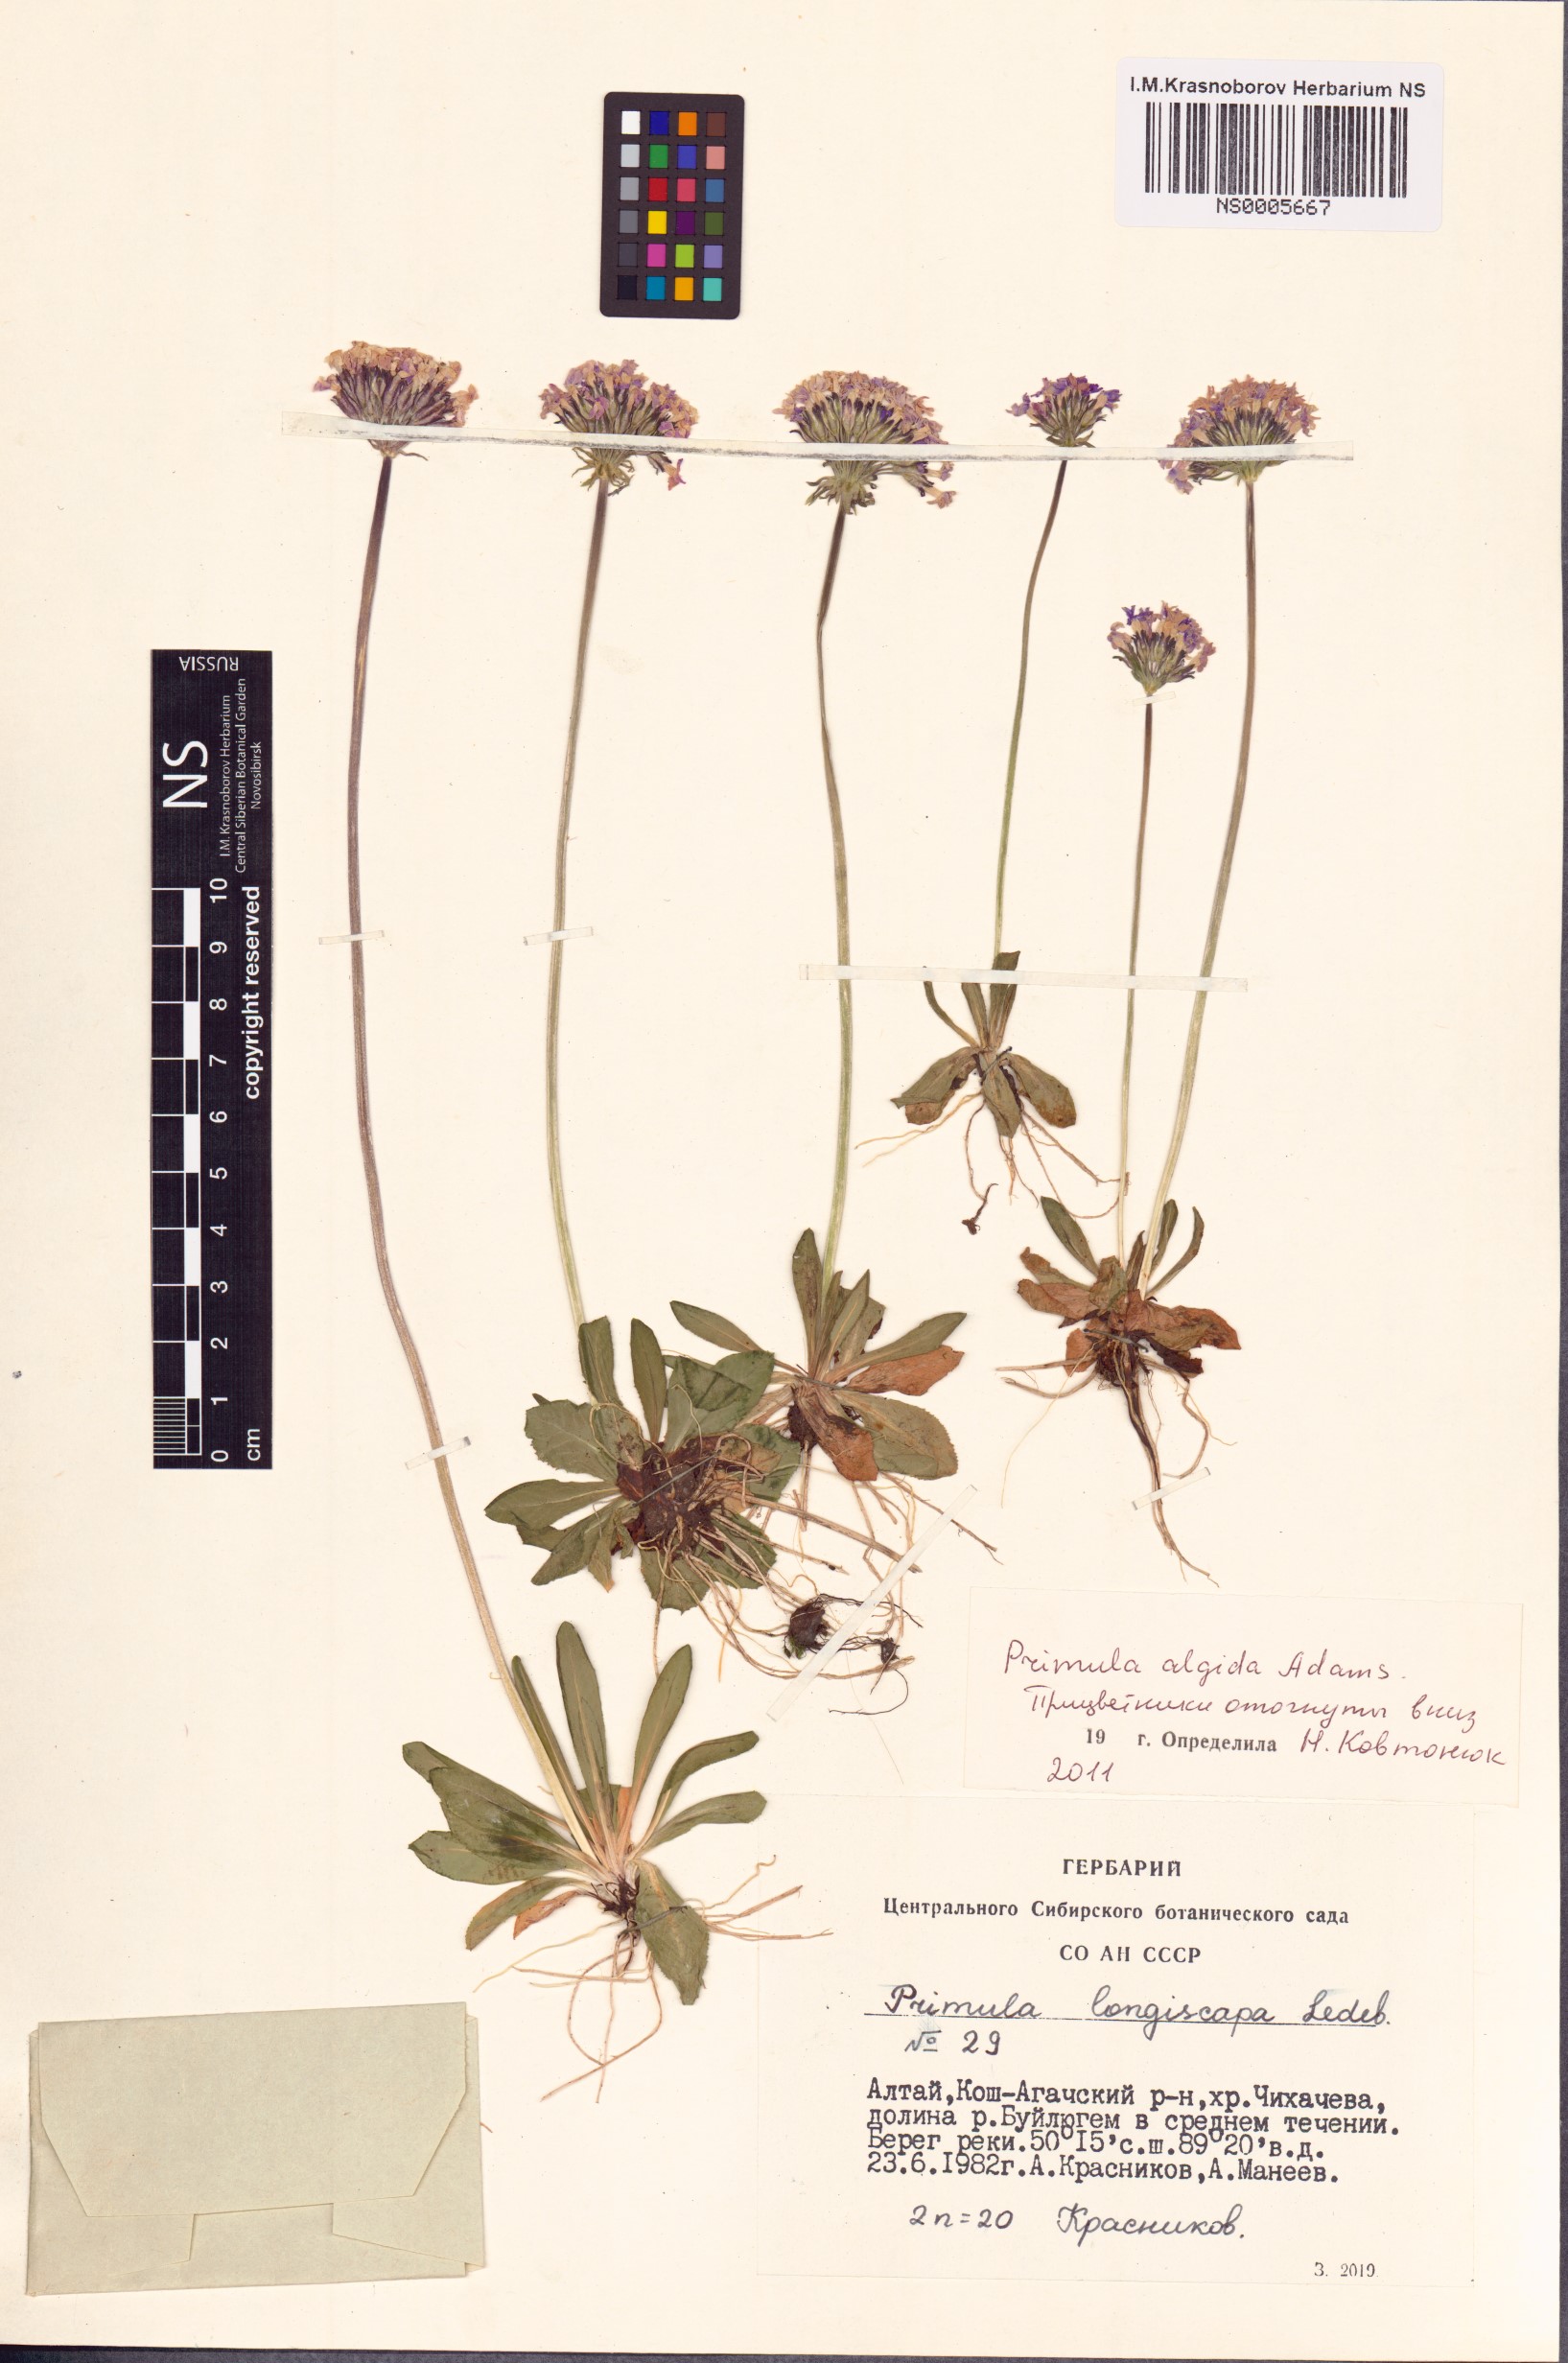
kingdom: Plantae
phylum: Tracheophyta
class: Magnoliopsida
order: Ericales
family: Primulaceae
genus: Primula
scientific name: Primula algida
